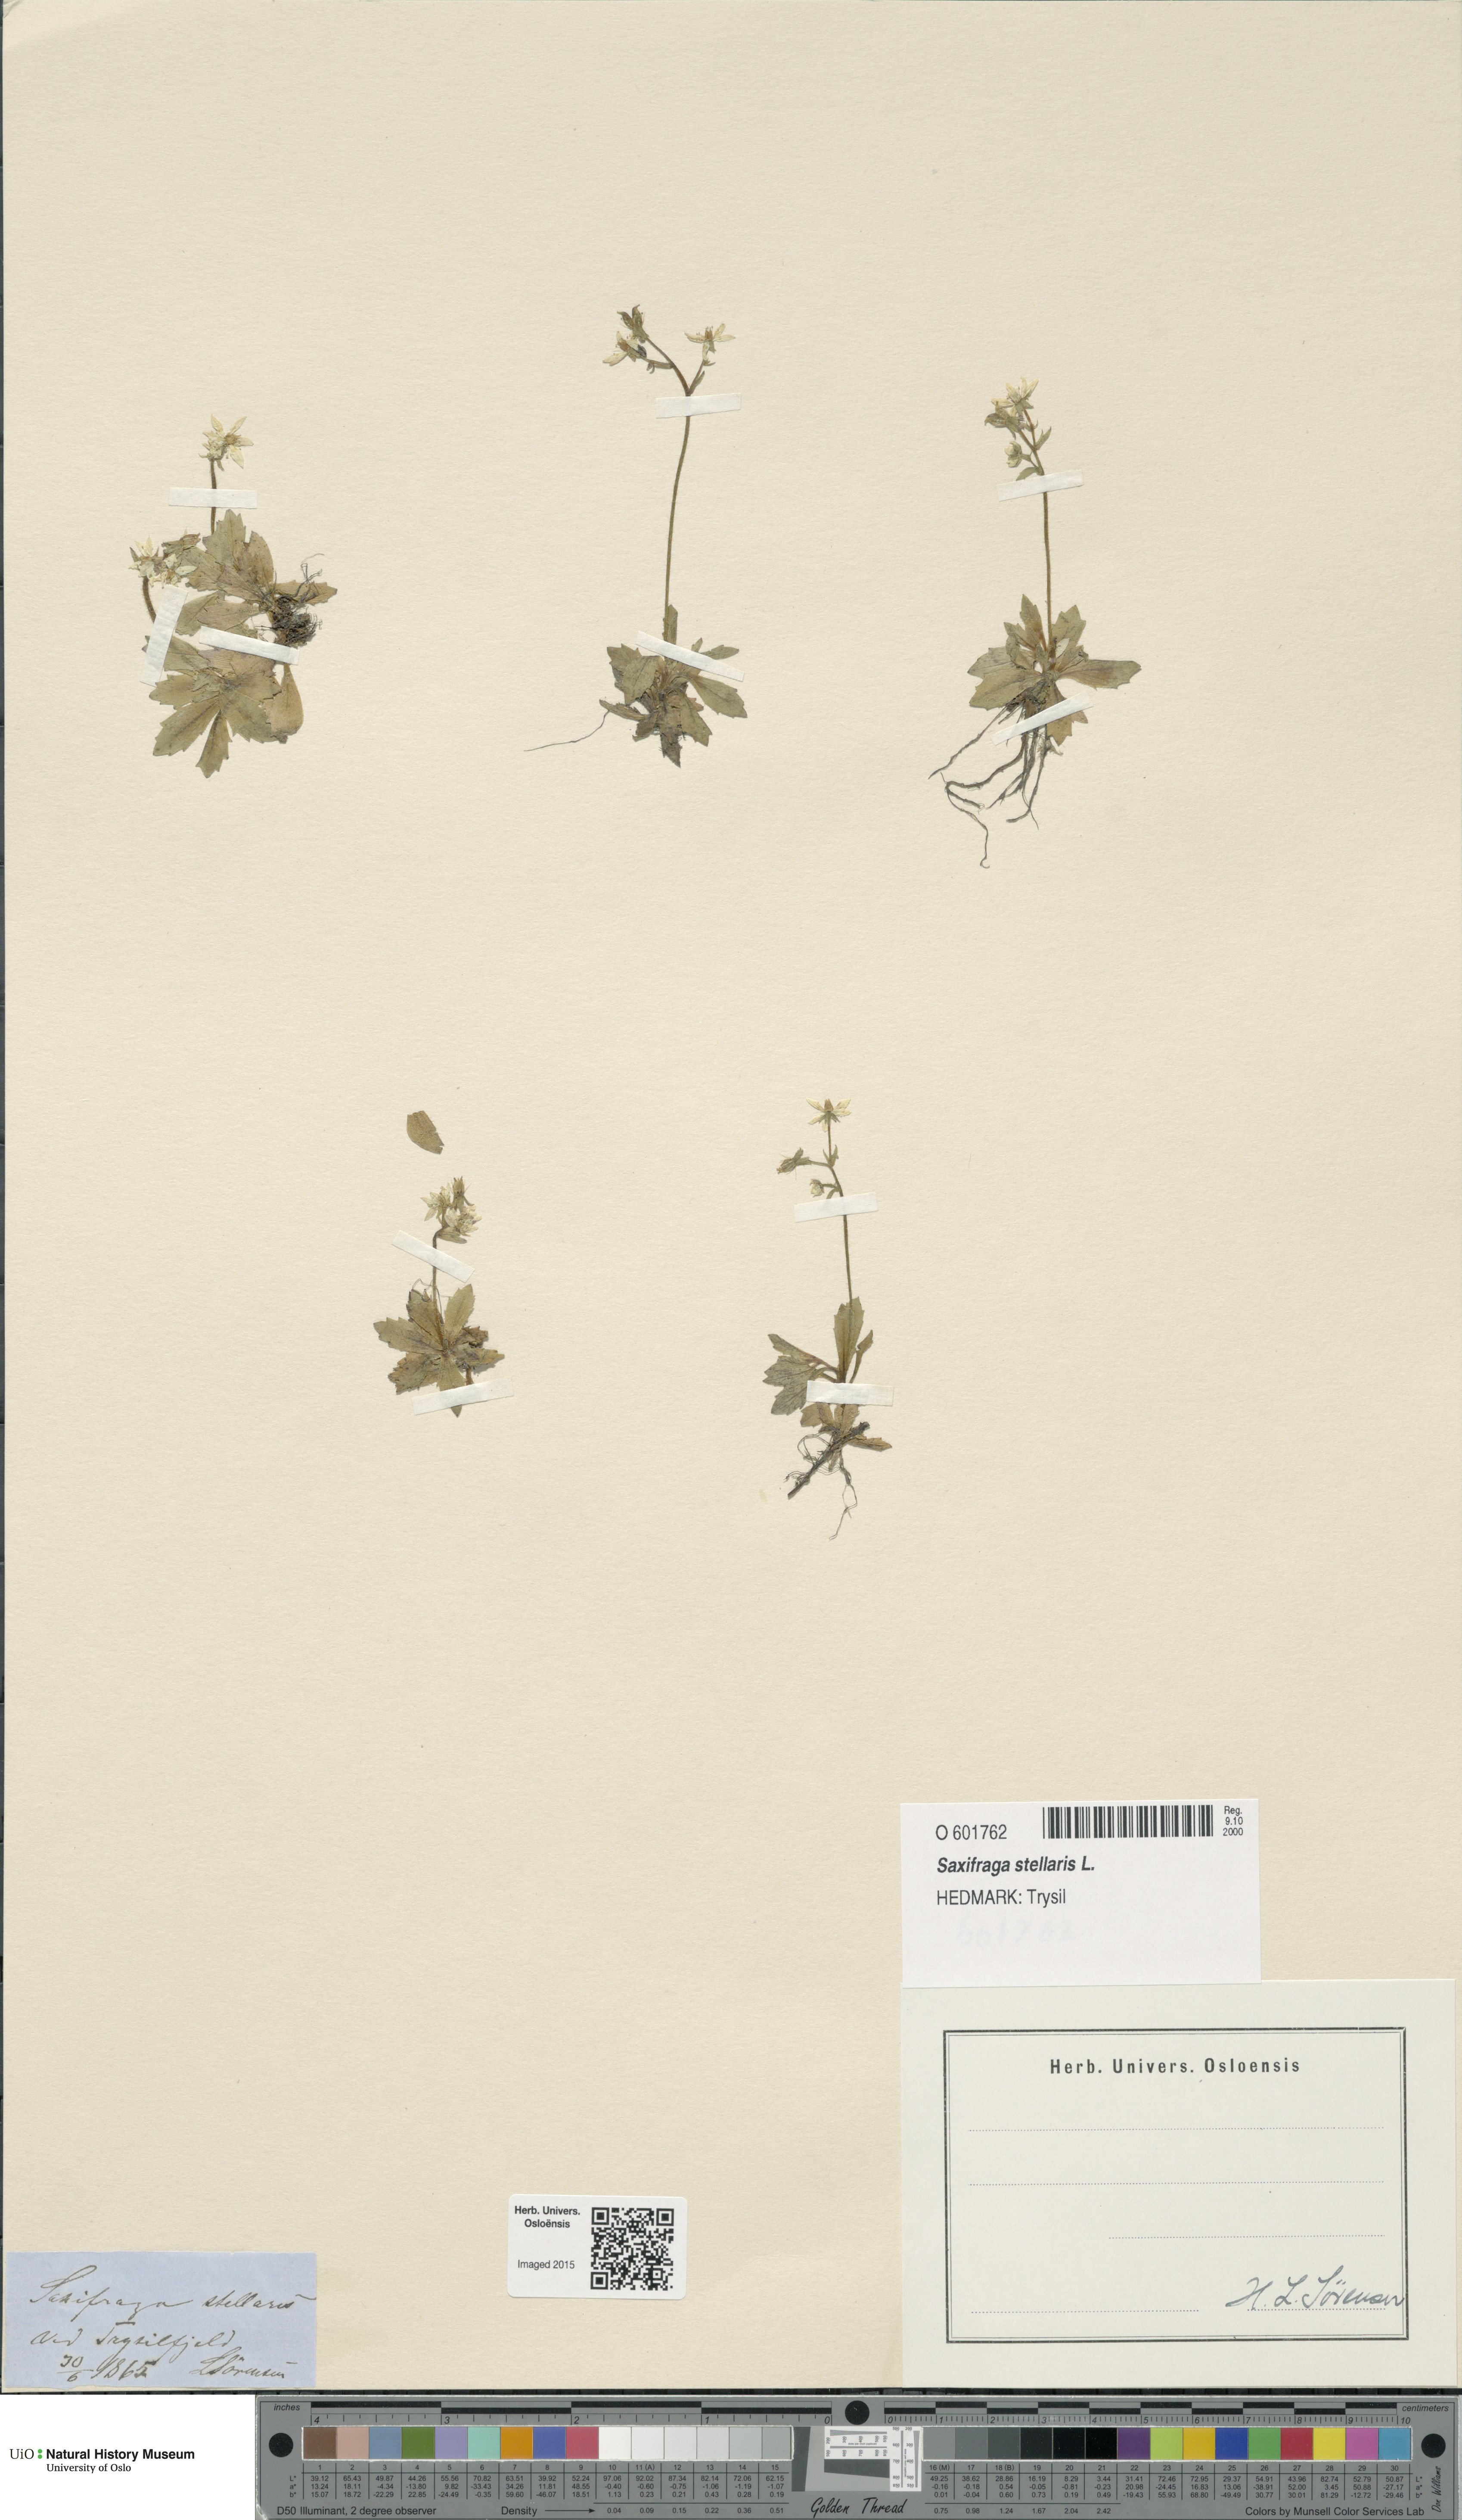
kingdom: Plantae
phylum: Tracheophyta
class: Magnoliopsida
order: Saxifragales
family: Saxifragaceae
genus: Micranthes
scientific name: Micranthes stellaris
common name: Starry saxifrage
